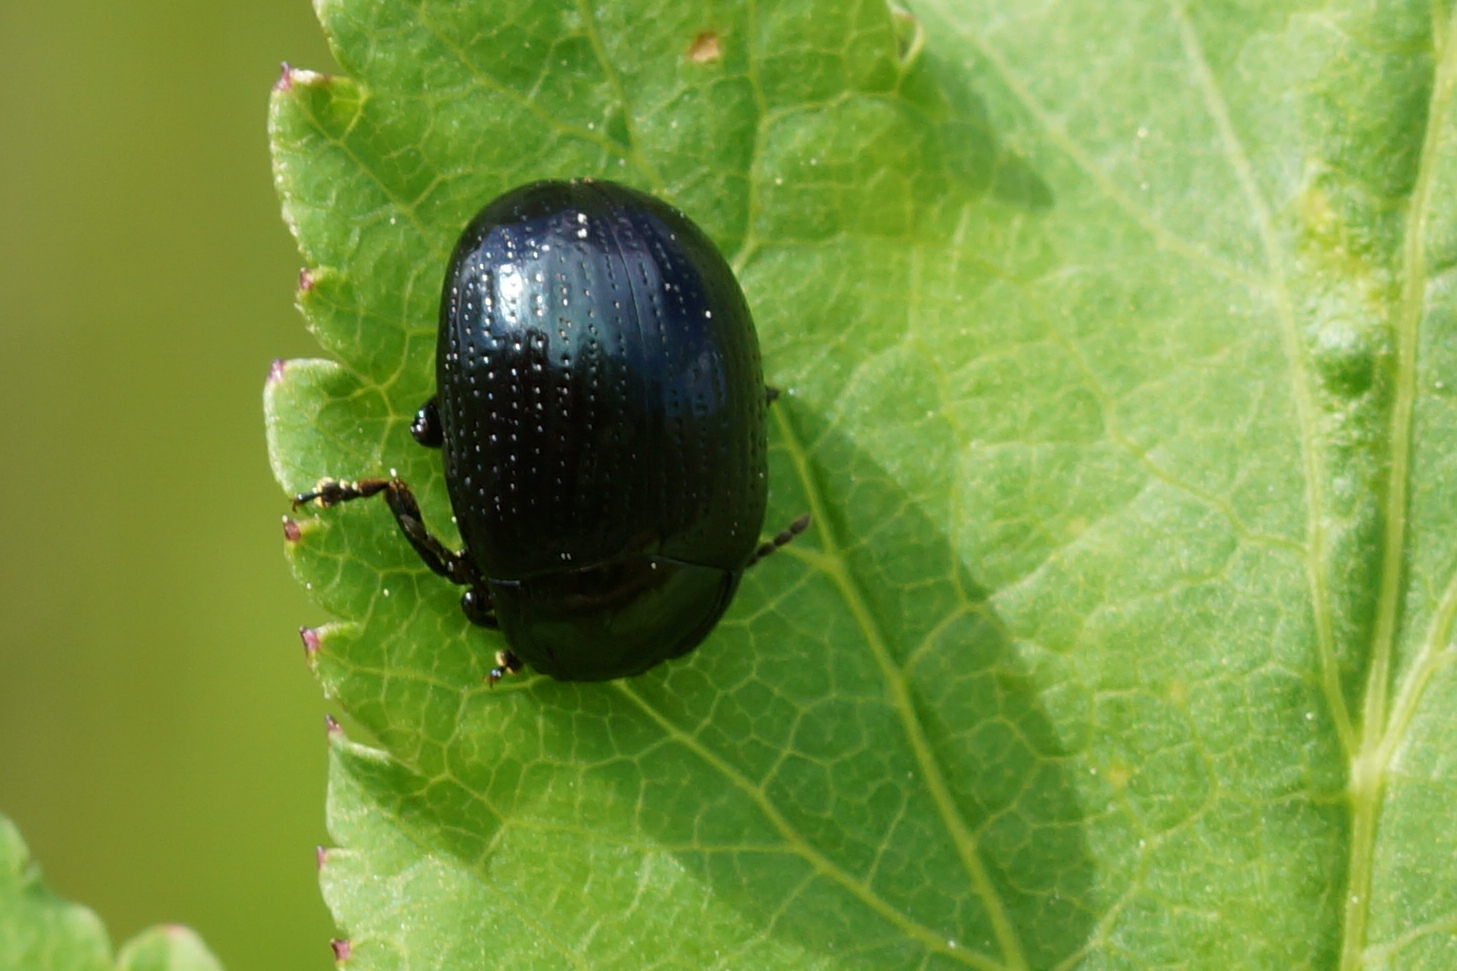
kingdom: Animalia
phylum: Arthropoda
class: Insecta
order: Coleoptera
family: Chrysomelidae
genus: Chrysolina
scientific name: Chrysolina oricalcia
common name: Rækkepunkteret guldbille
